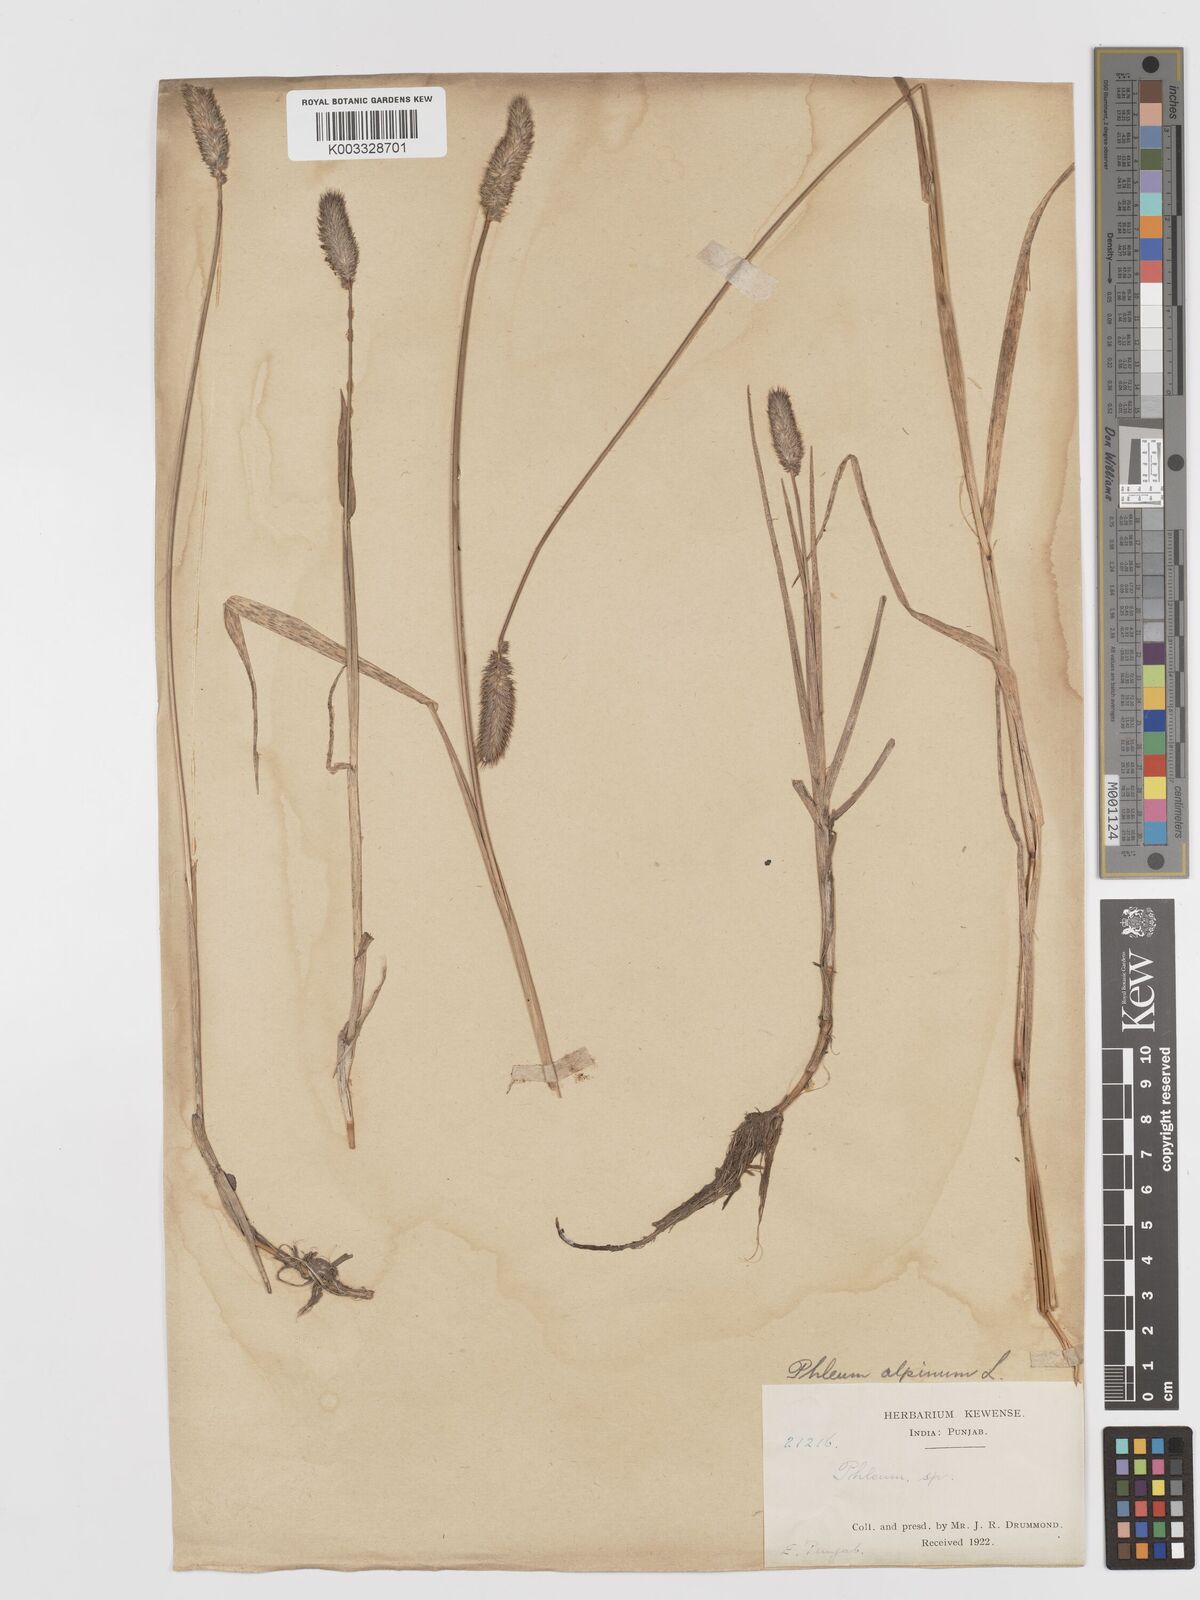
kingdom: Plantae
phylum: Tracheophyta
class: Liliopsida
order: Poales
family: Poaceae
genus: Phleum
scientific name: Phleum alpinum
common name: Alpine cat's-tail
